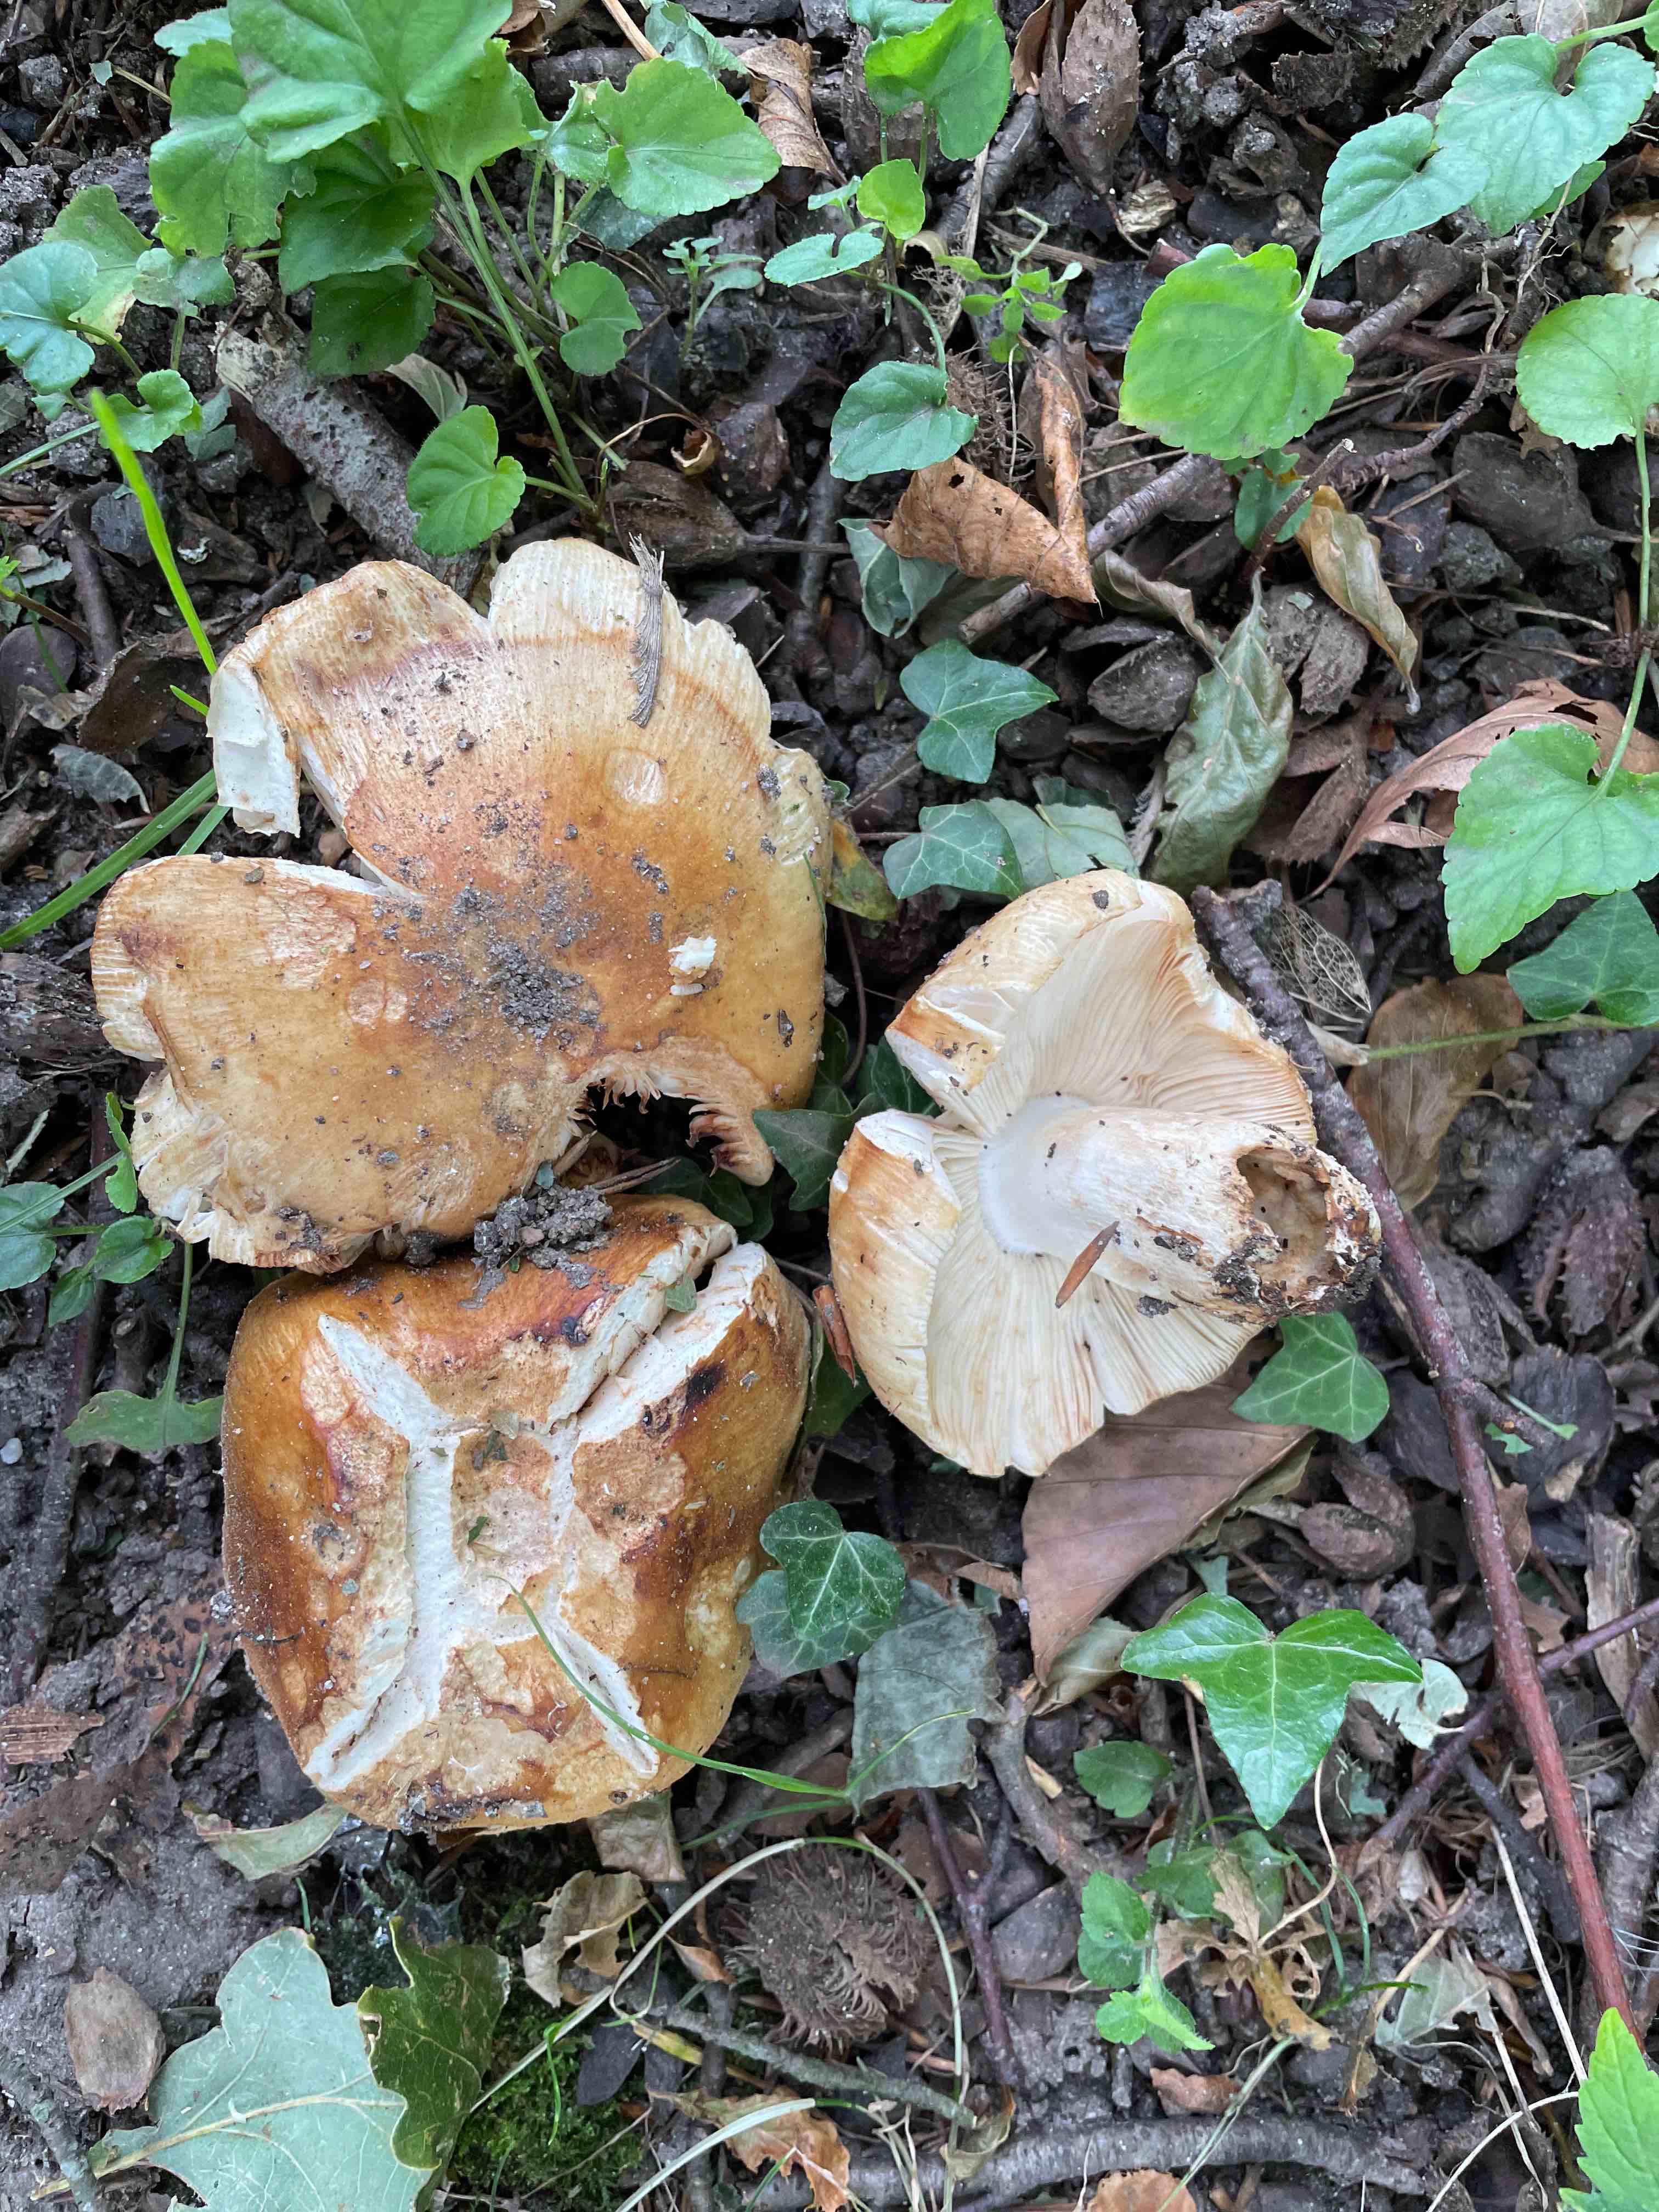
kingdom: Fungi
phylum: Basidiomycota
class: Agaricomycetes
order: Russulales
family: Russulaceae
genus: Russula
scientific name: Russula foetens
